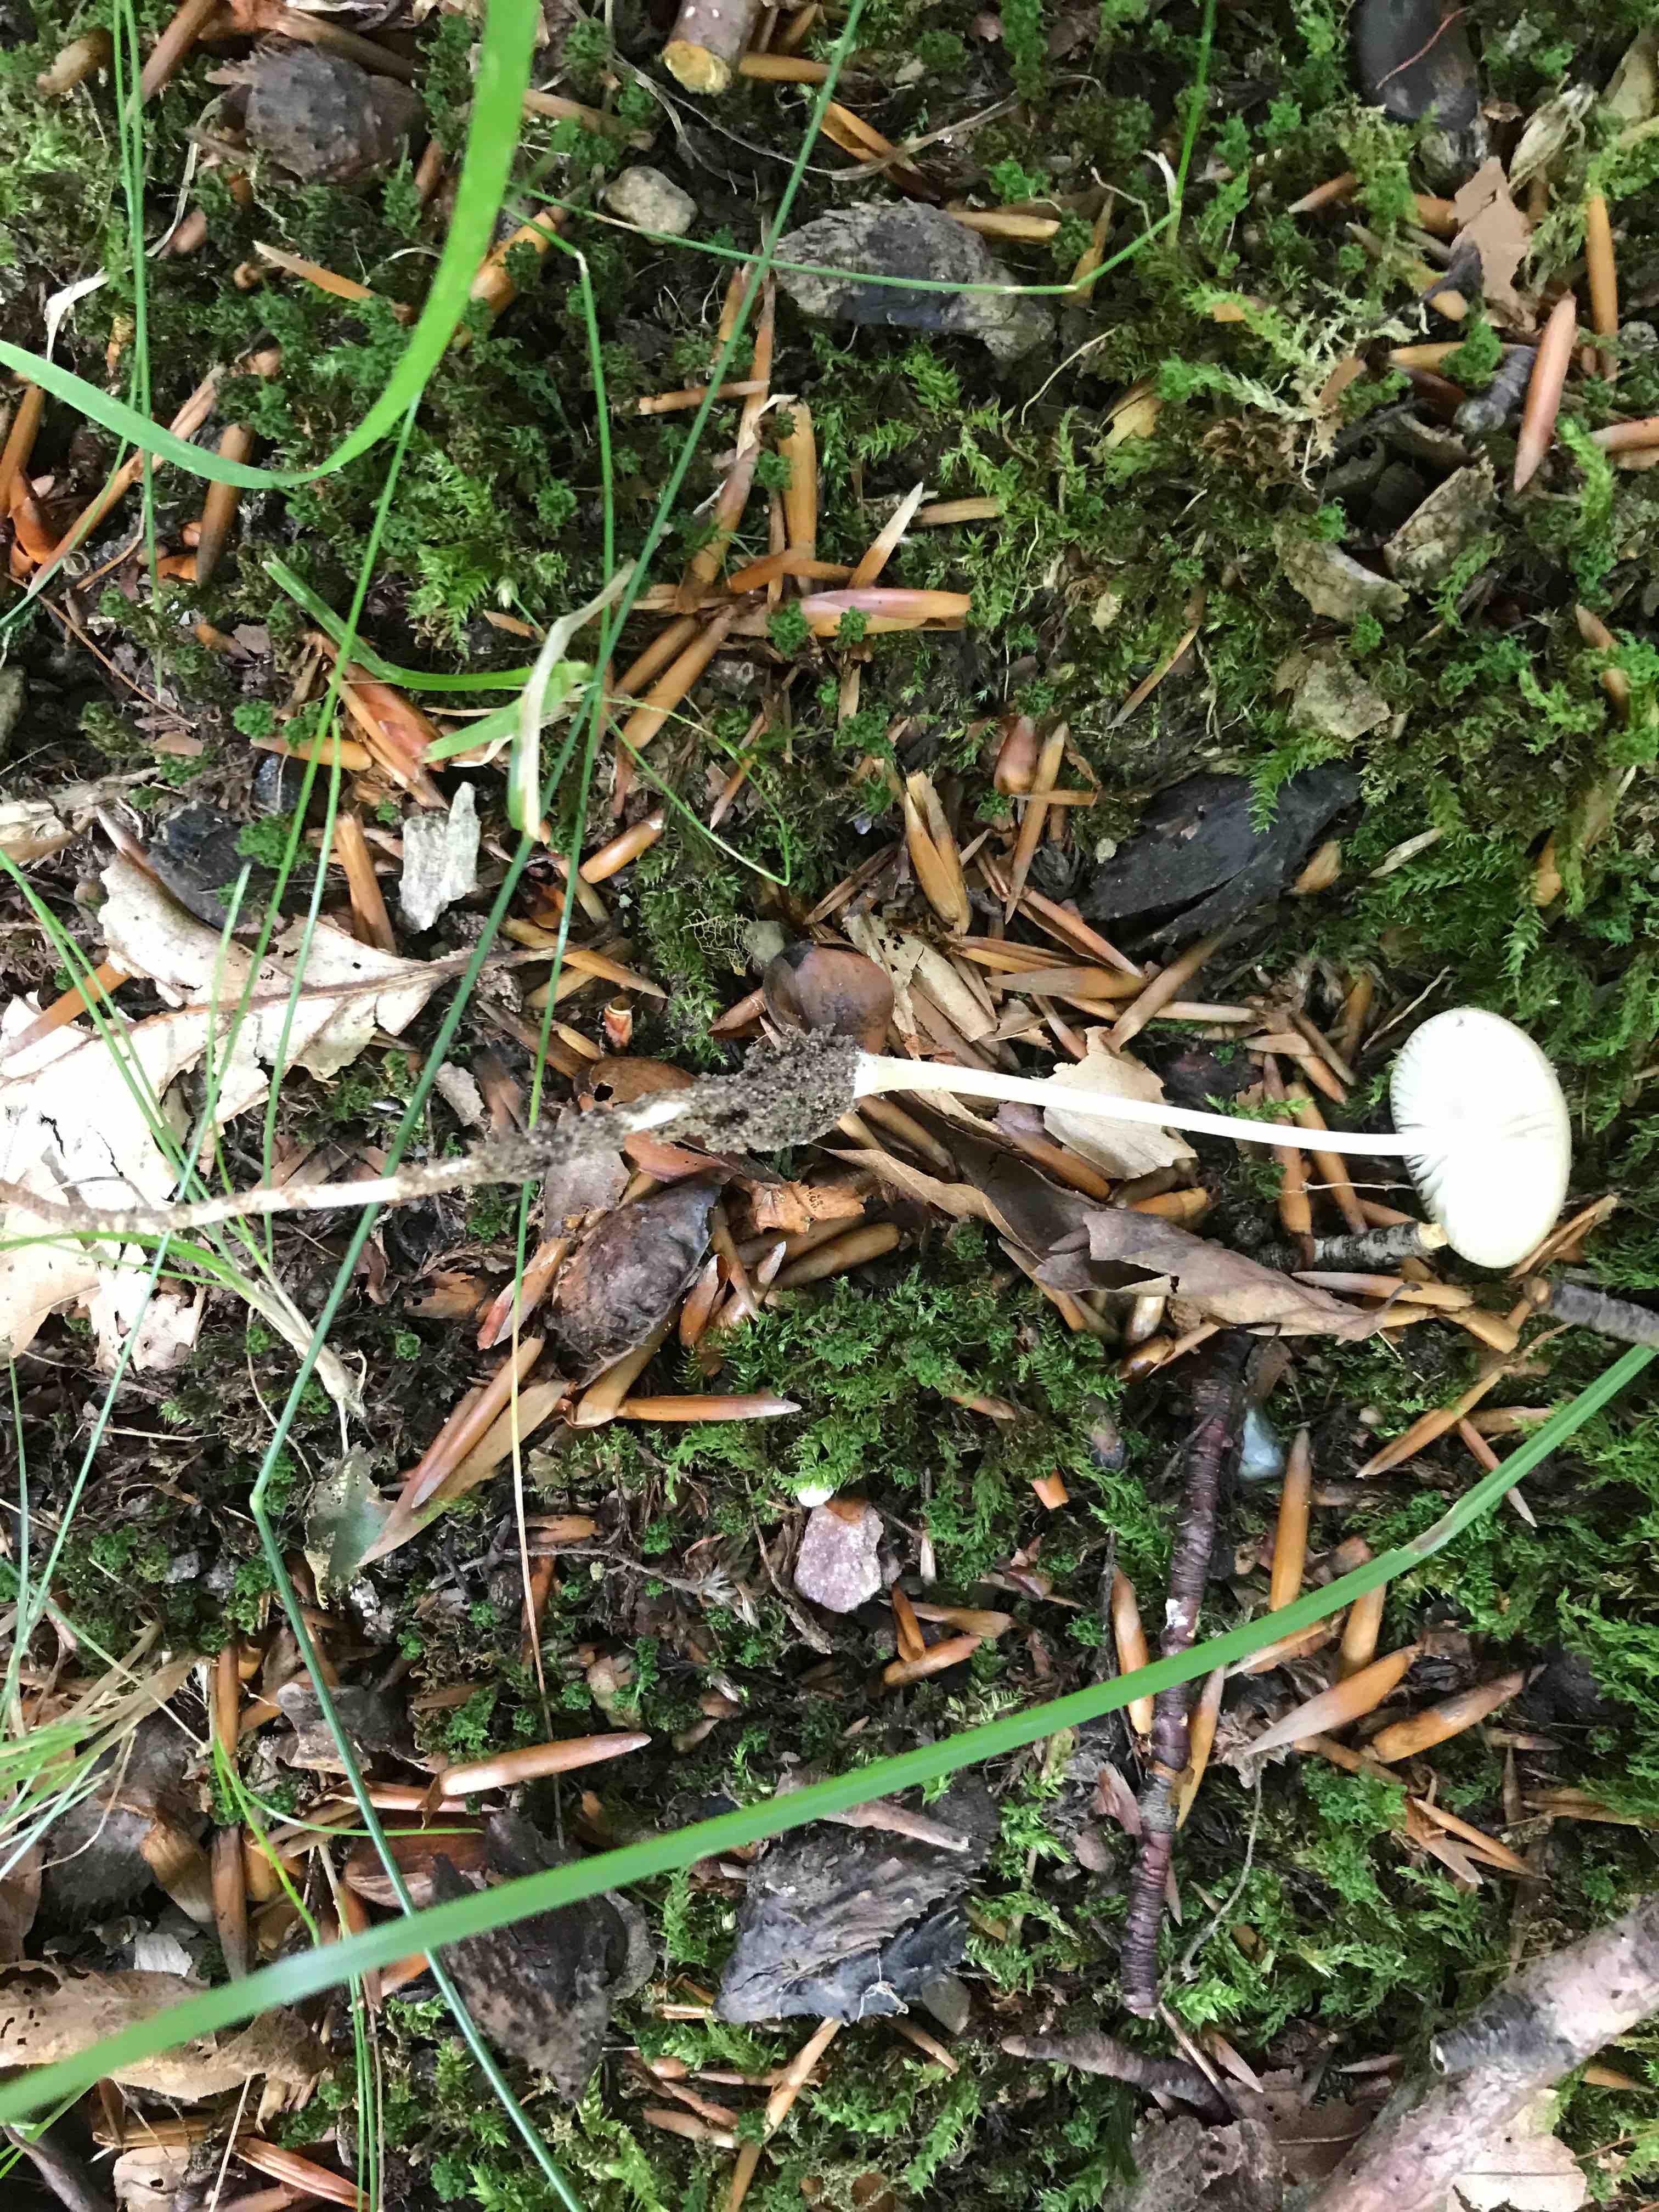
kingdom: Fungi
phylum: Basidiomycota
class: Agaricomycetes
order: Agaricales
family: Physalacriaceae
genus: Hymenopellis
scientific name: Hymenopellis radicata
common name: almindelig pælerodshat
